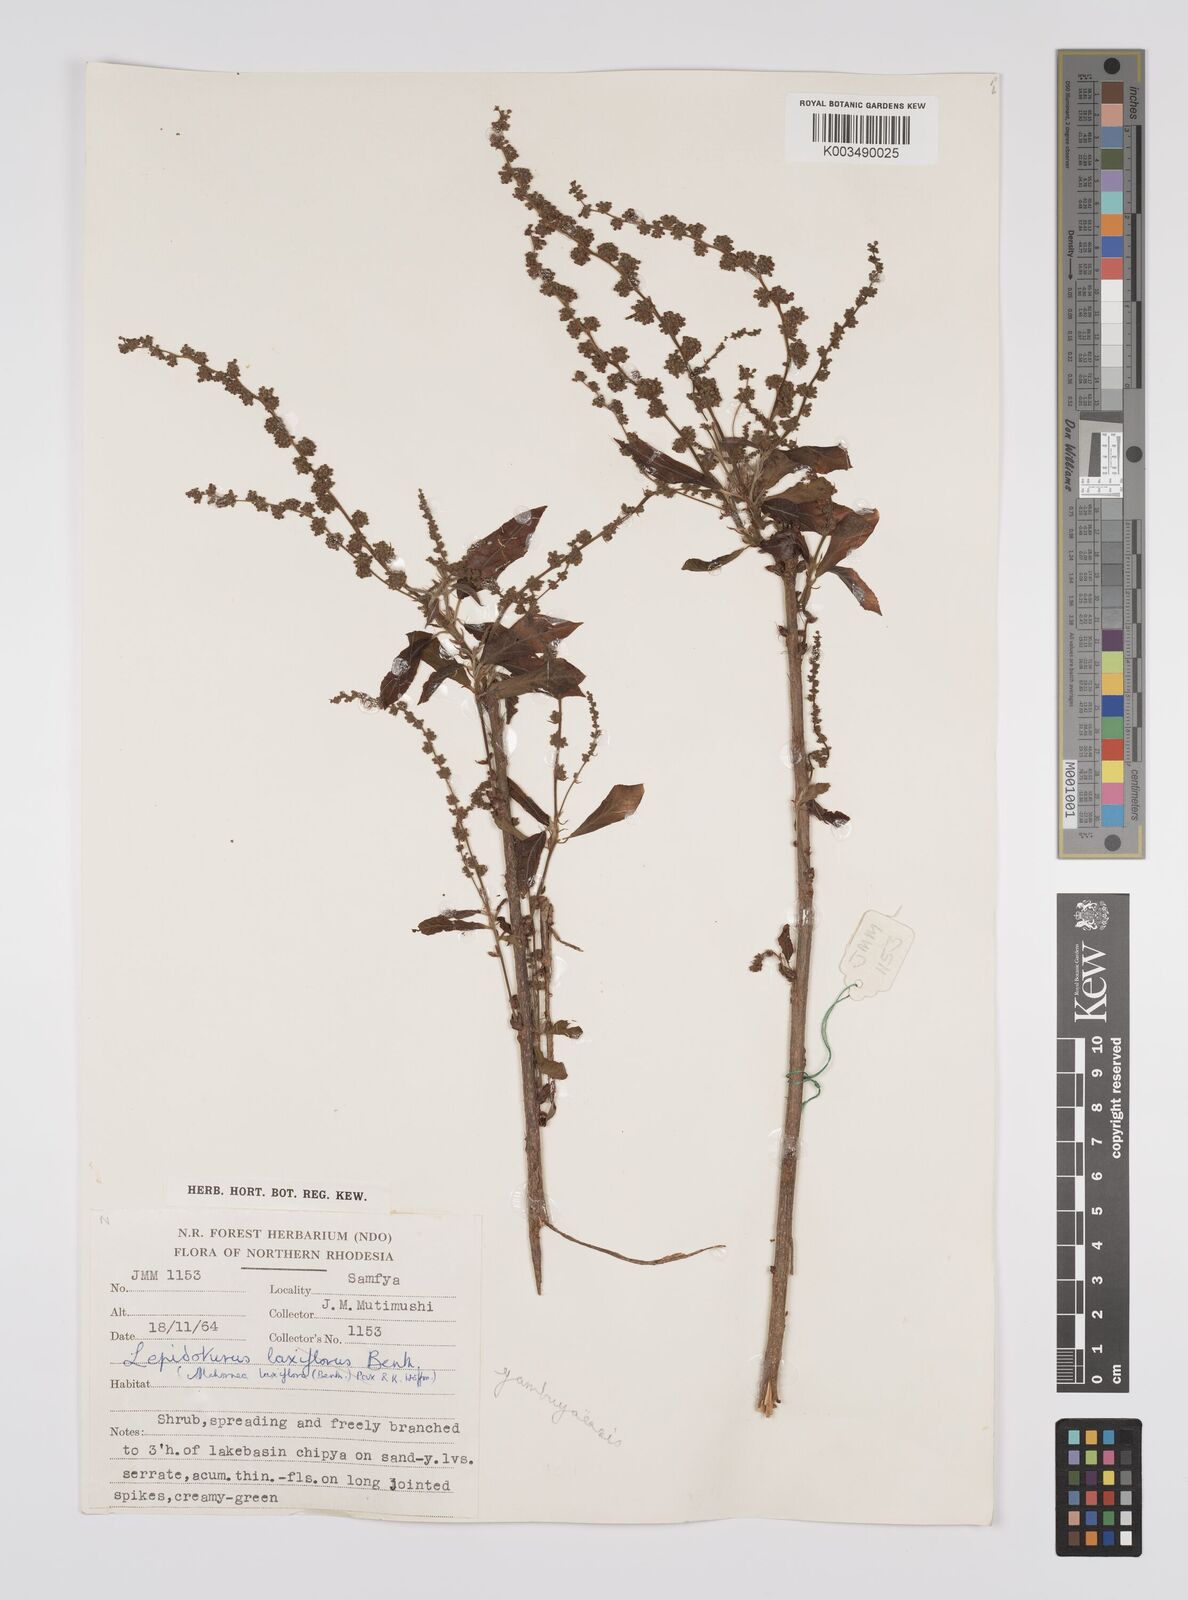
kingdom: Plantae
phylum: Tracheophyta
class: Magnoliopsida
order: Malpighiales
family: Euphorbiaceae
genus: Alchornea
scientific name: Alchornea yambuyaensis
